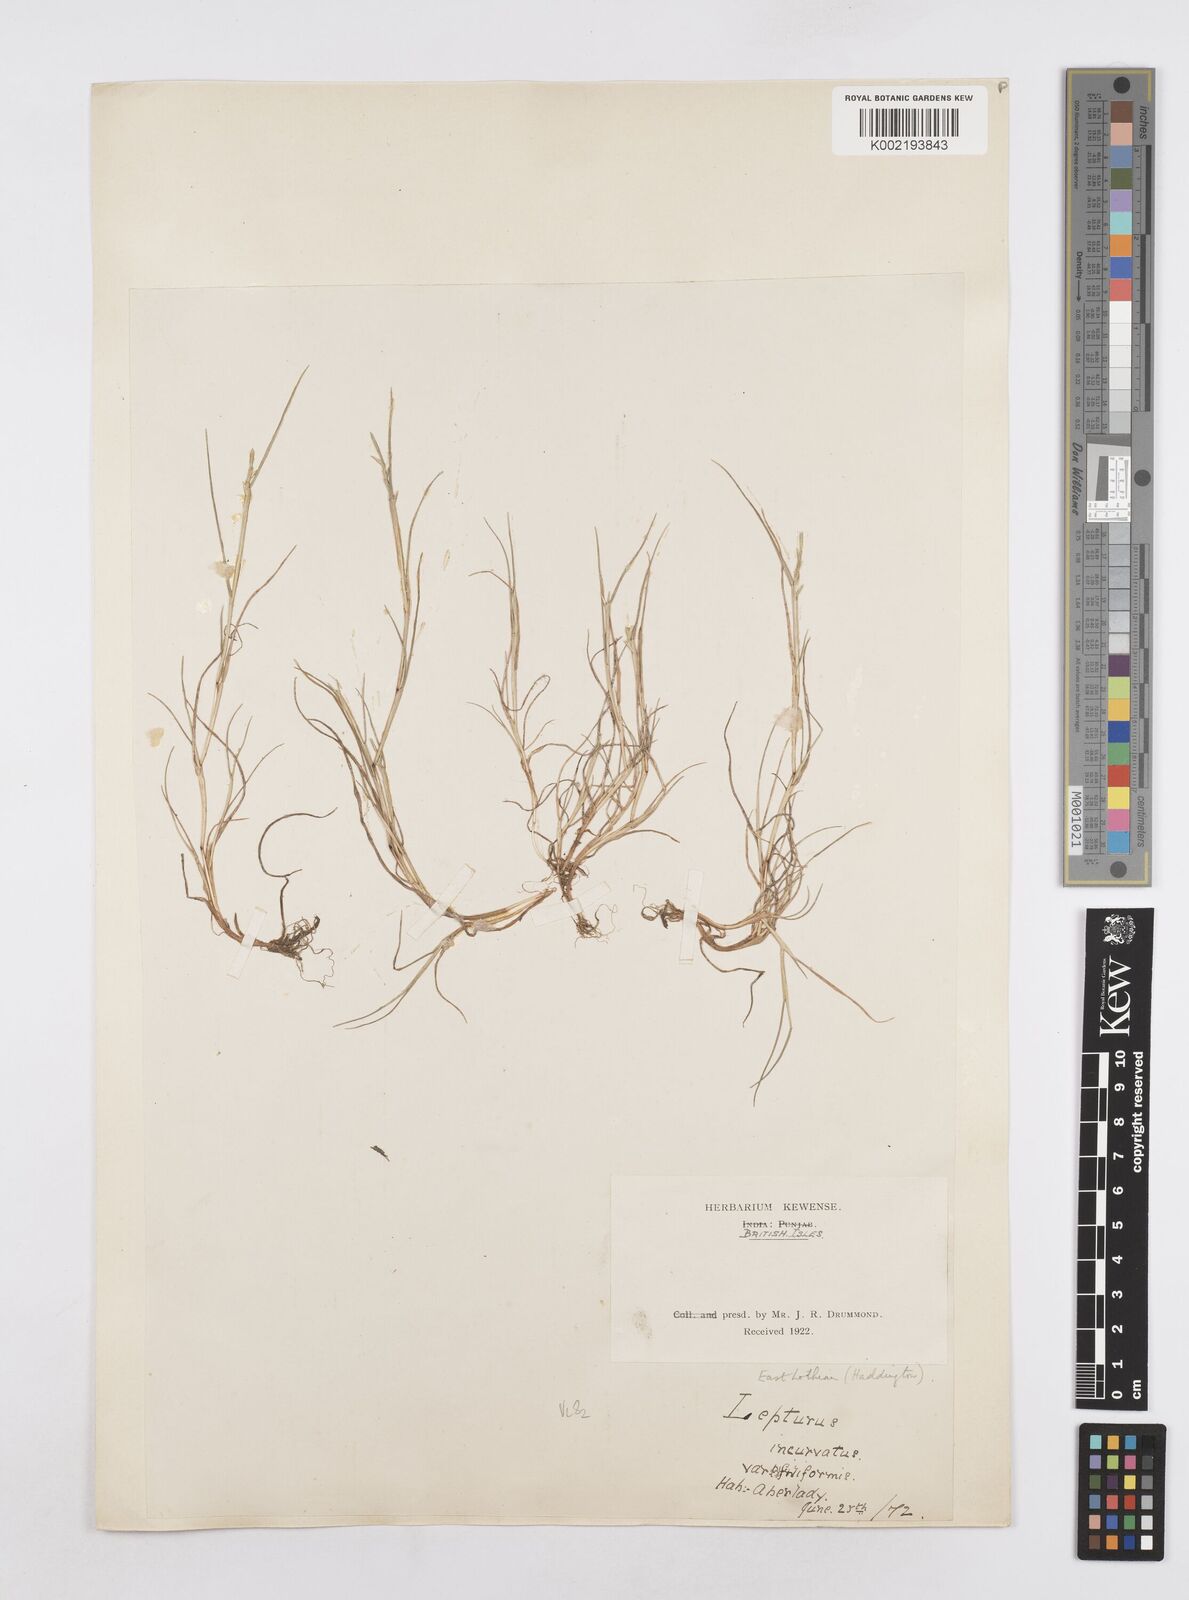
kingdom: Plantae
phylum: Tracheophyta
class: Liliopsida
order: Poales
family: Poaceae
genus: Parapholis
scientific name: Parapholis strigosa
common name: Hard-grass
